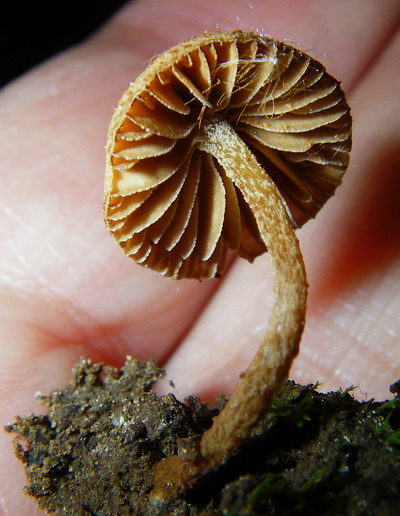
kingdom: Fungi
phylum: Basidiomycota
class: Agaricomycetes
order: Agaricales
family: Tubariaceae
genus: Flammulaster
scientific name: Flammulaster granulosus
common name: gulbrun grynskælhat
